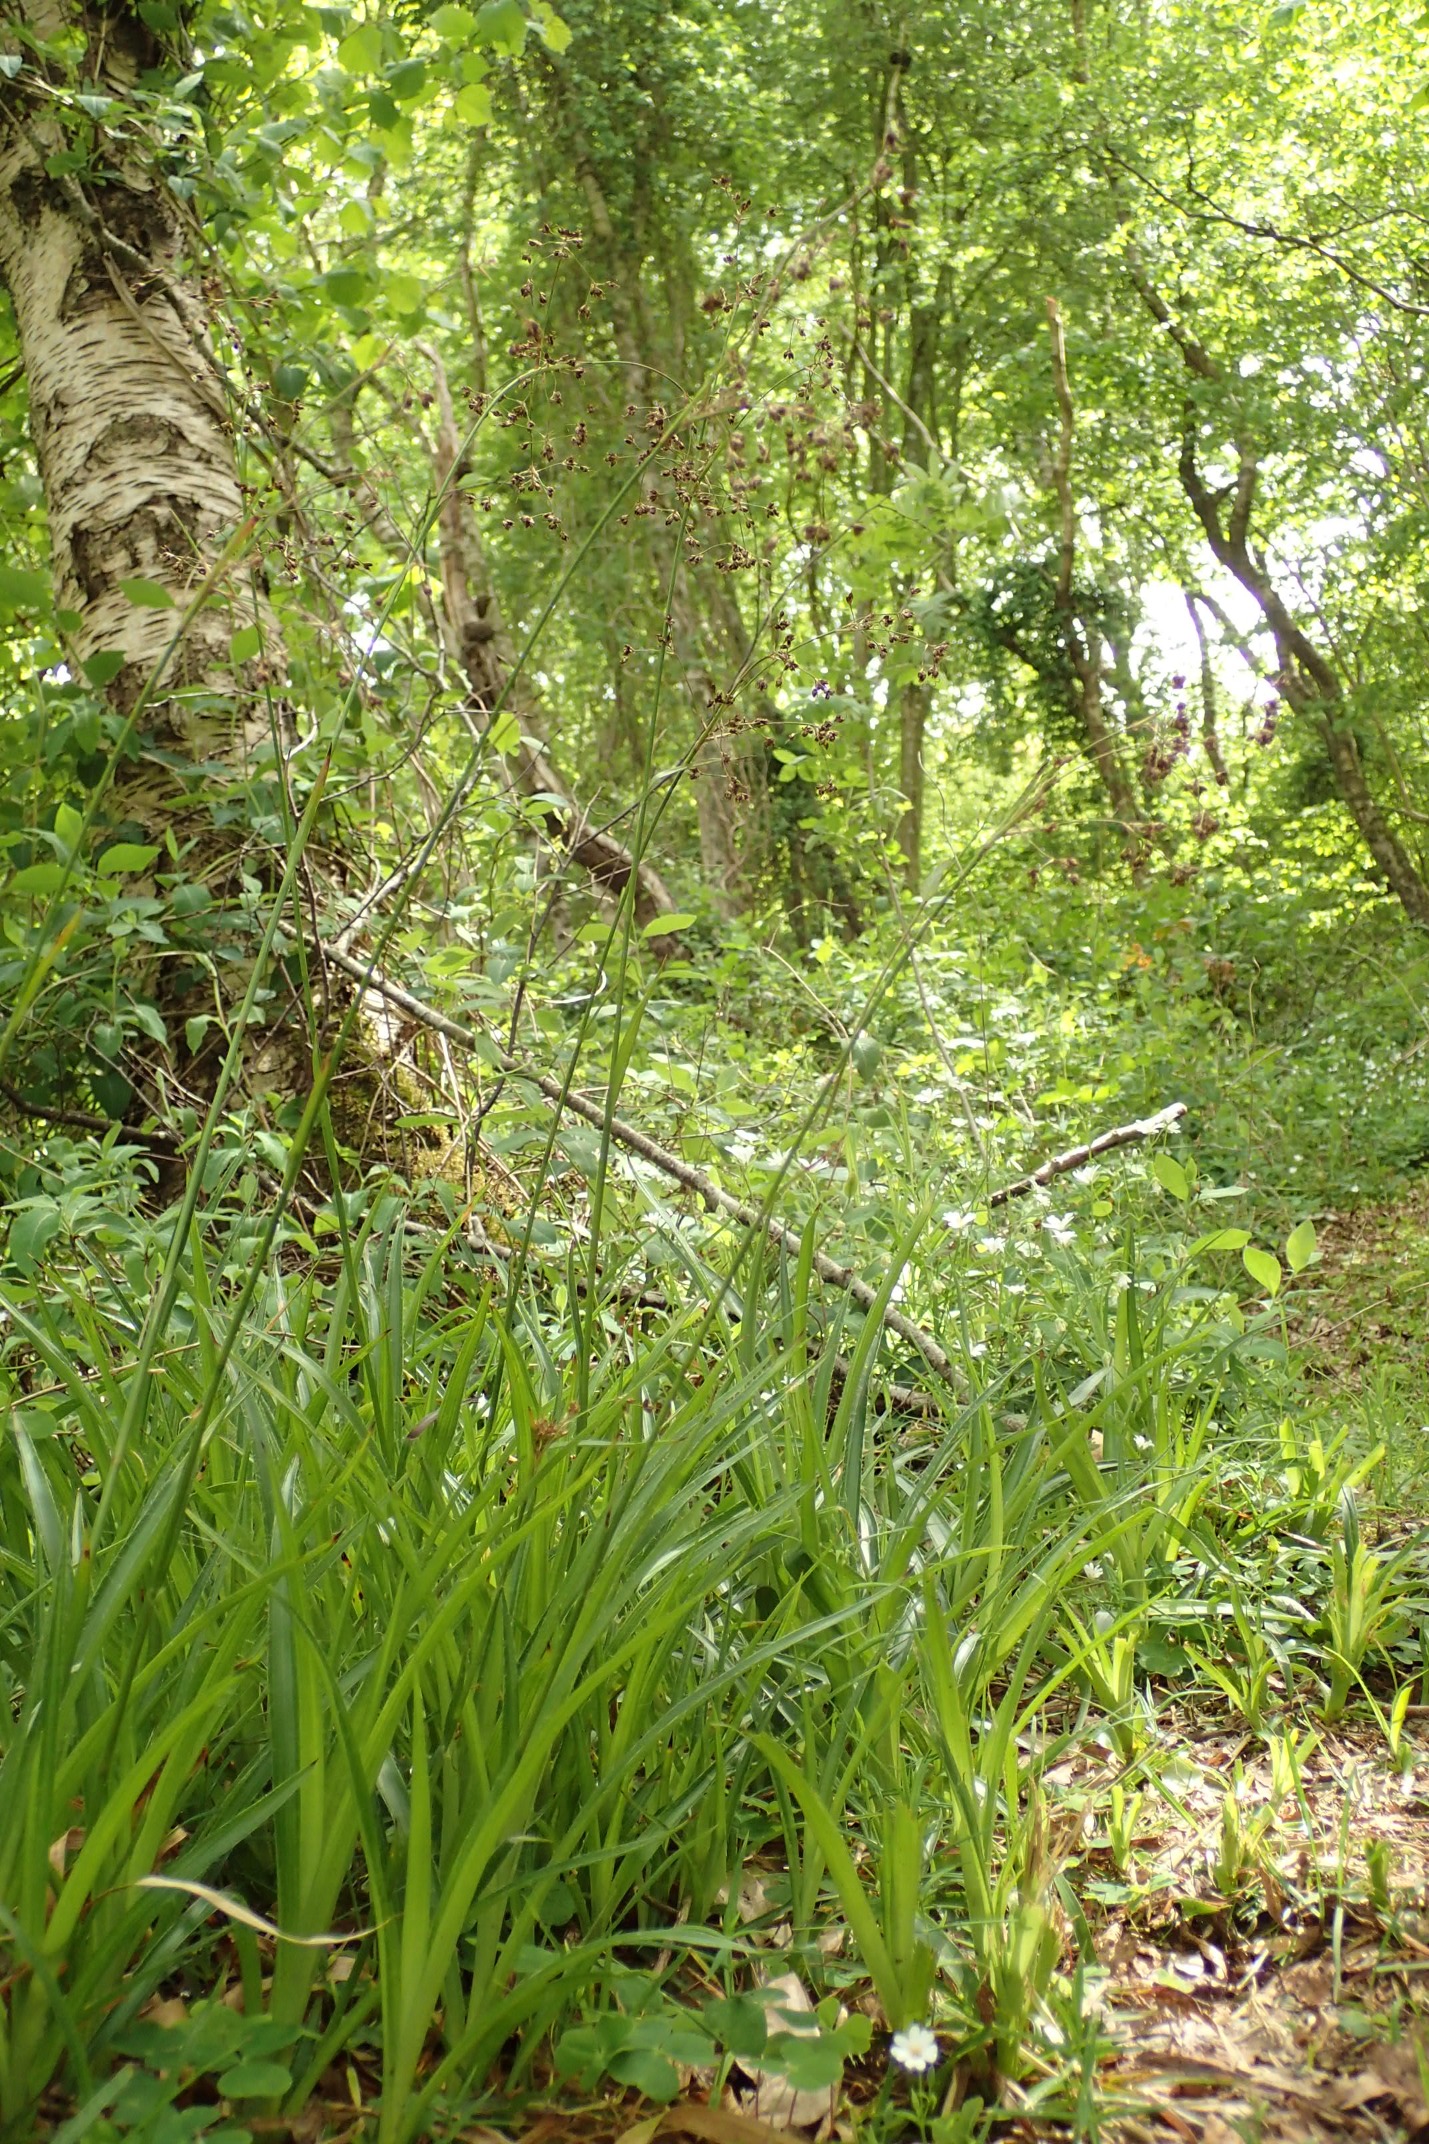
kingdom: Plantae
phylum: Tracheophyta
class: Liliopsida
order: Poales
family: Juncaceae
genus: Luzula
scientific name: Luzula sylvatica
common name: Stor frytle
